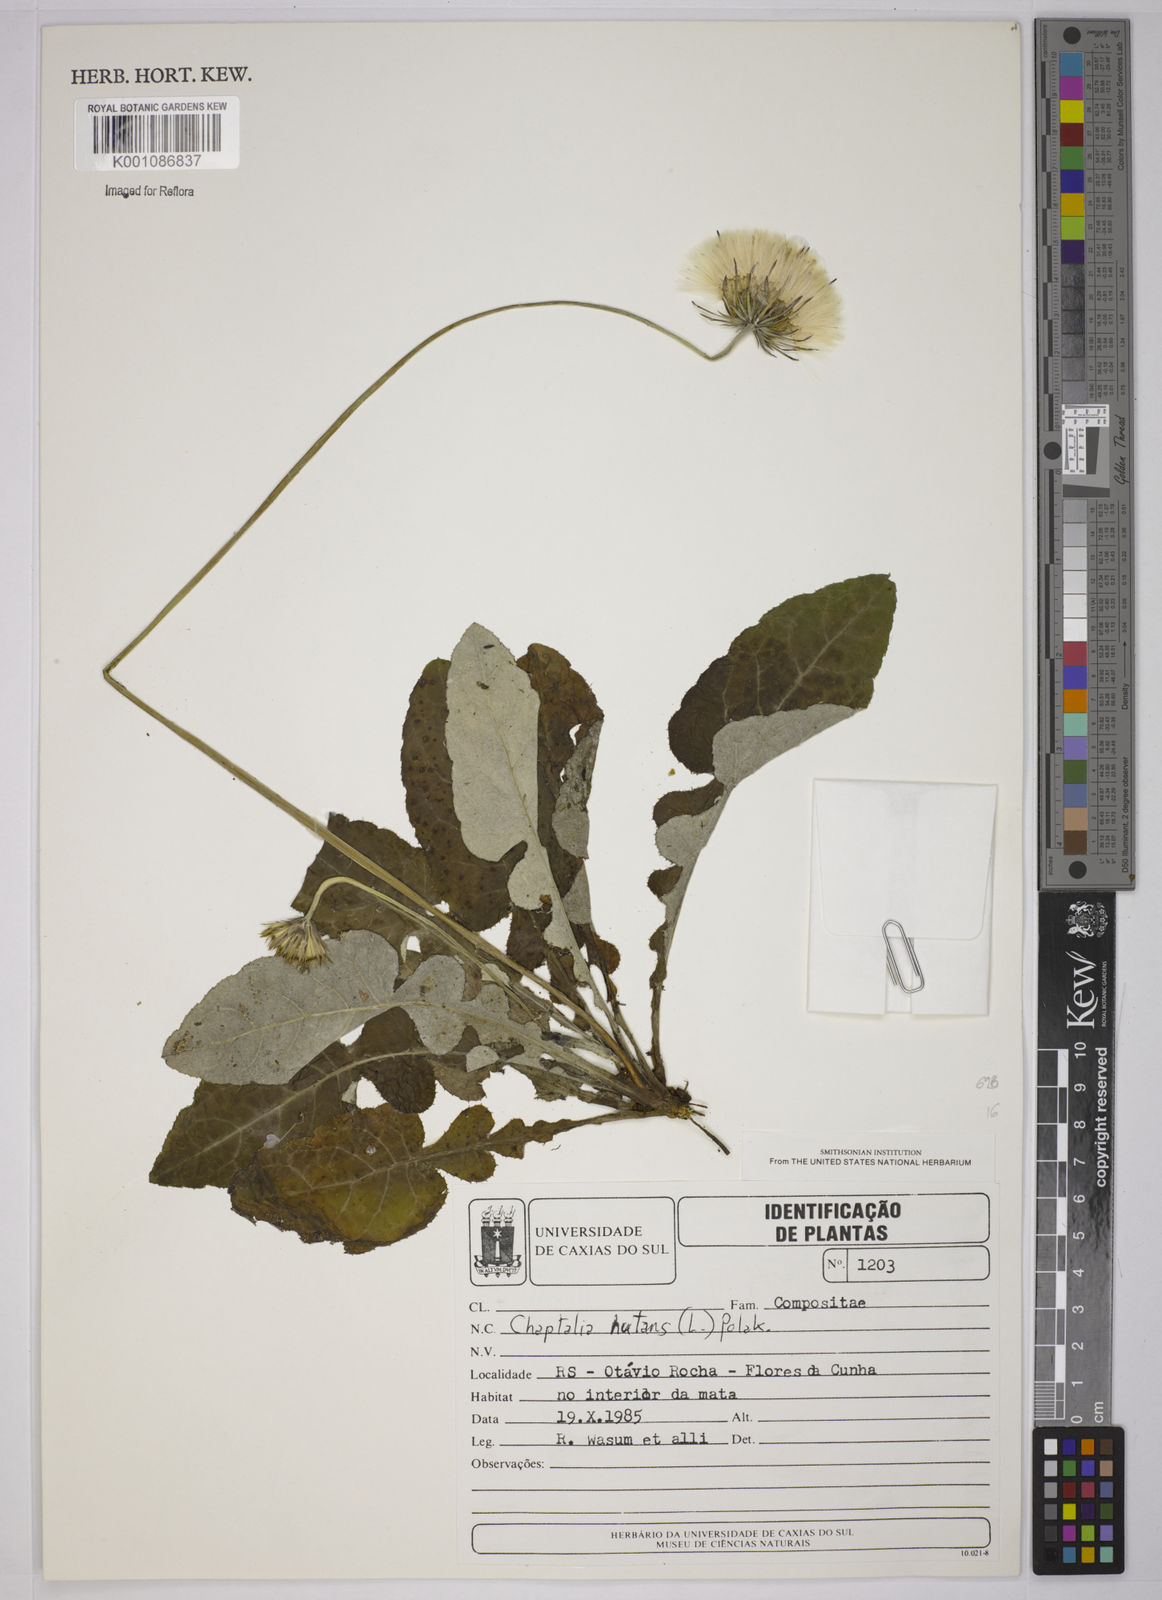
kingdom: Plantae
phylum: Tracheophyta
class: Magnoliopsida
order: Asterales
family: Asteraceae
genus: Chaptalia
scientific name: Chaptalia nutans
